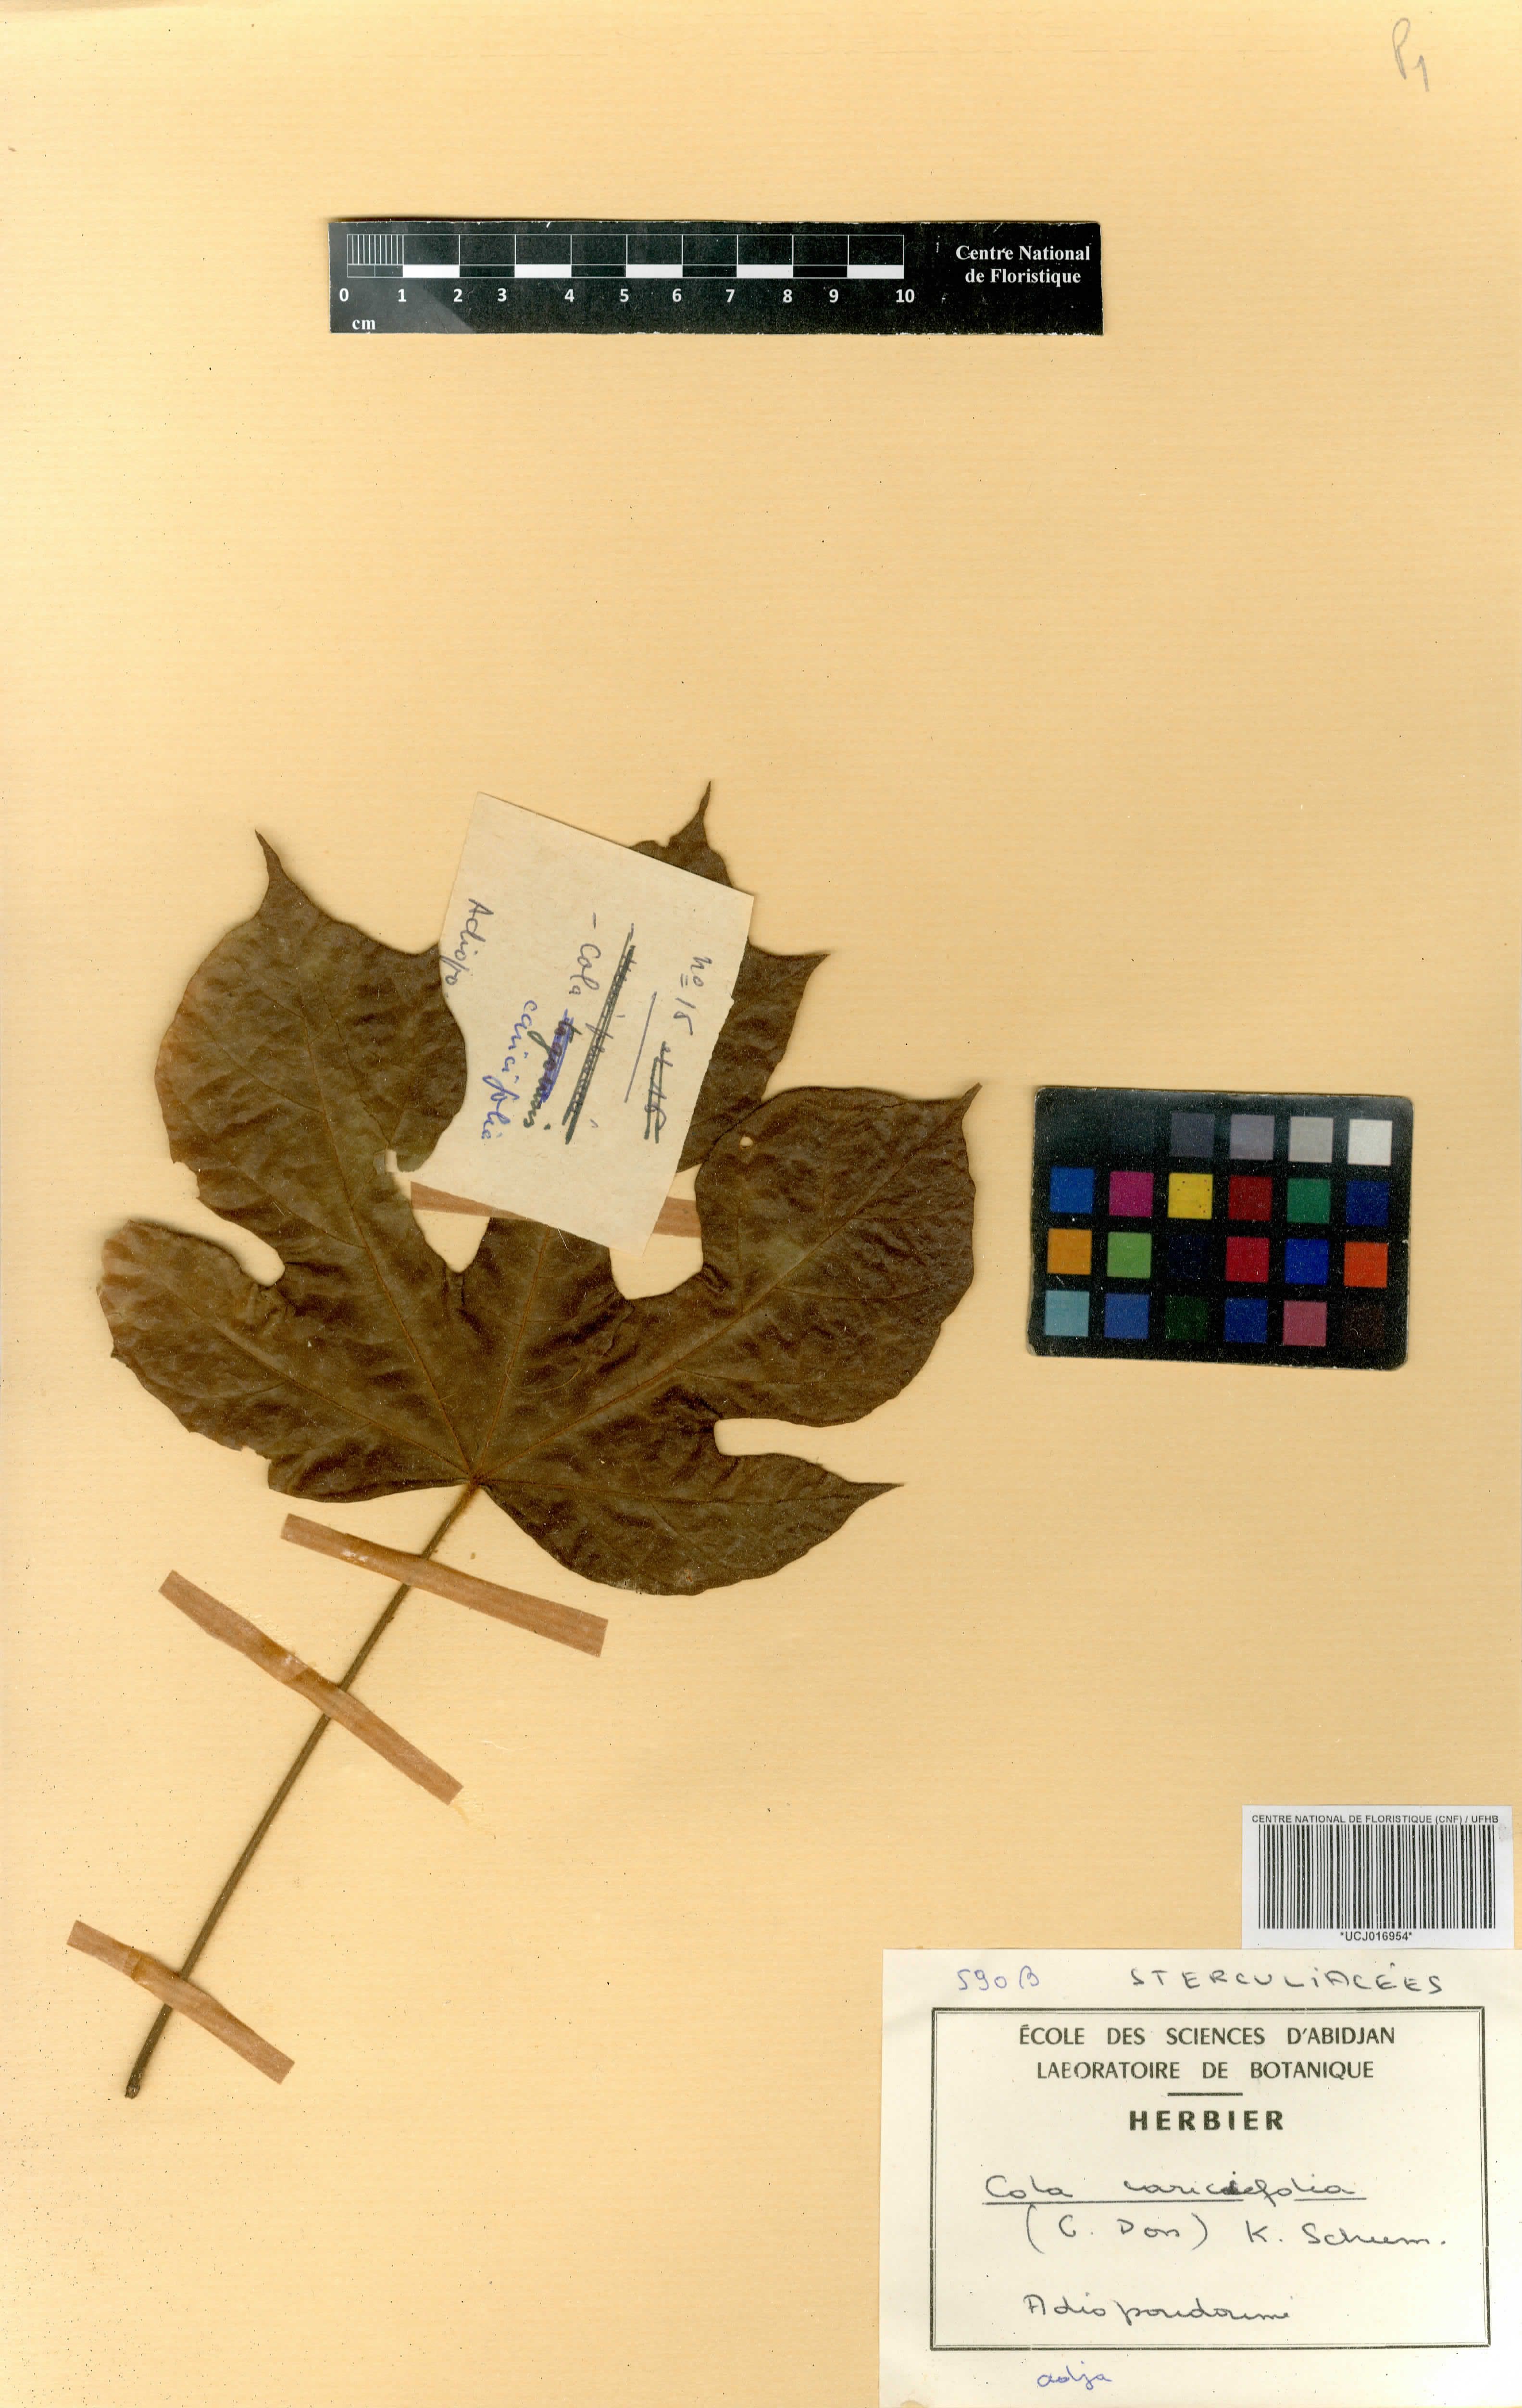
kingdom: Plantae
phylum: Tracheophyta
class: Magnoliopsida
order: Malvales
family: Malvaceae
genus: Cola
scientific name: Cola caricifolia
